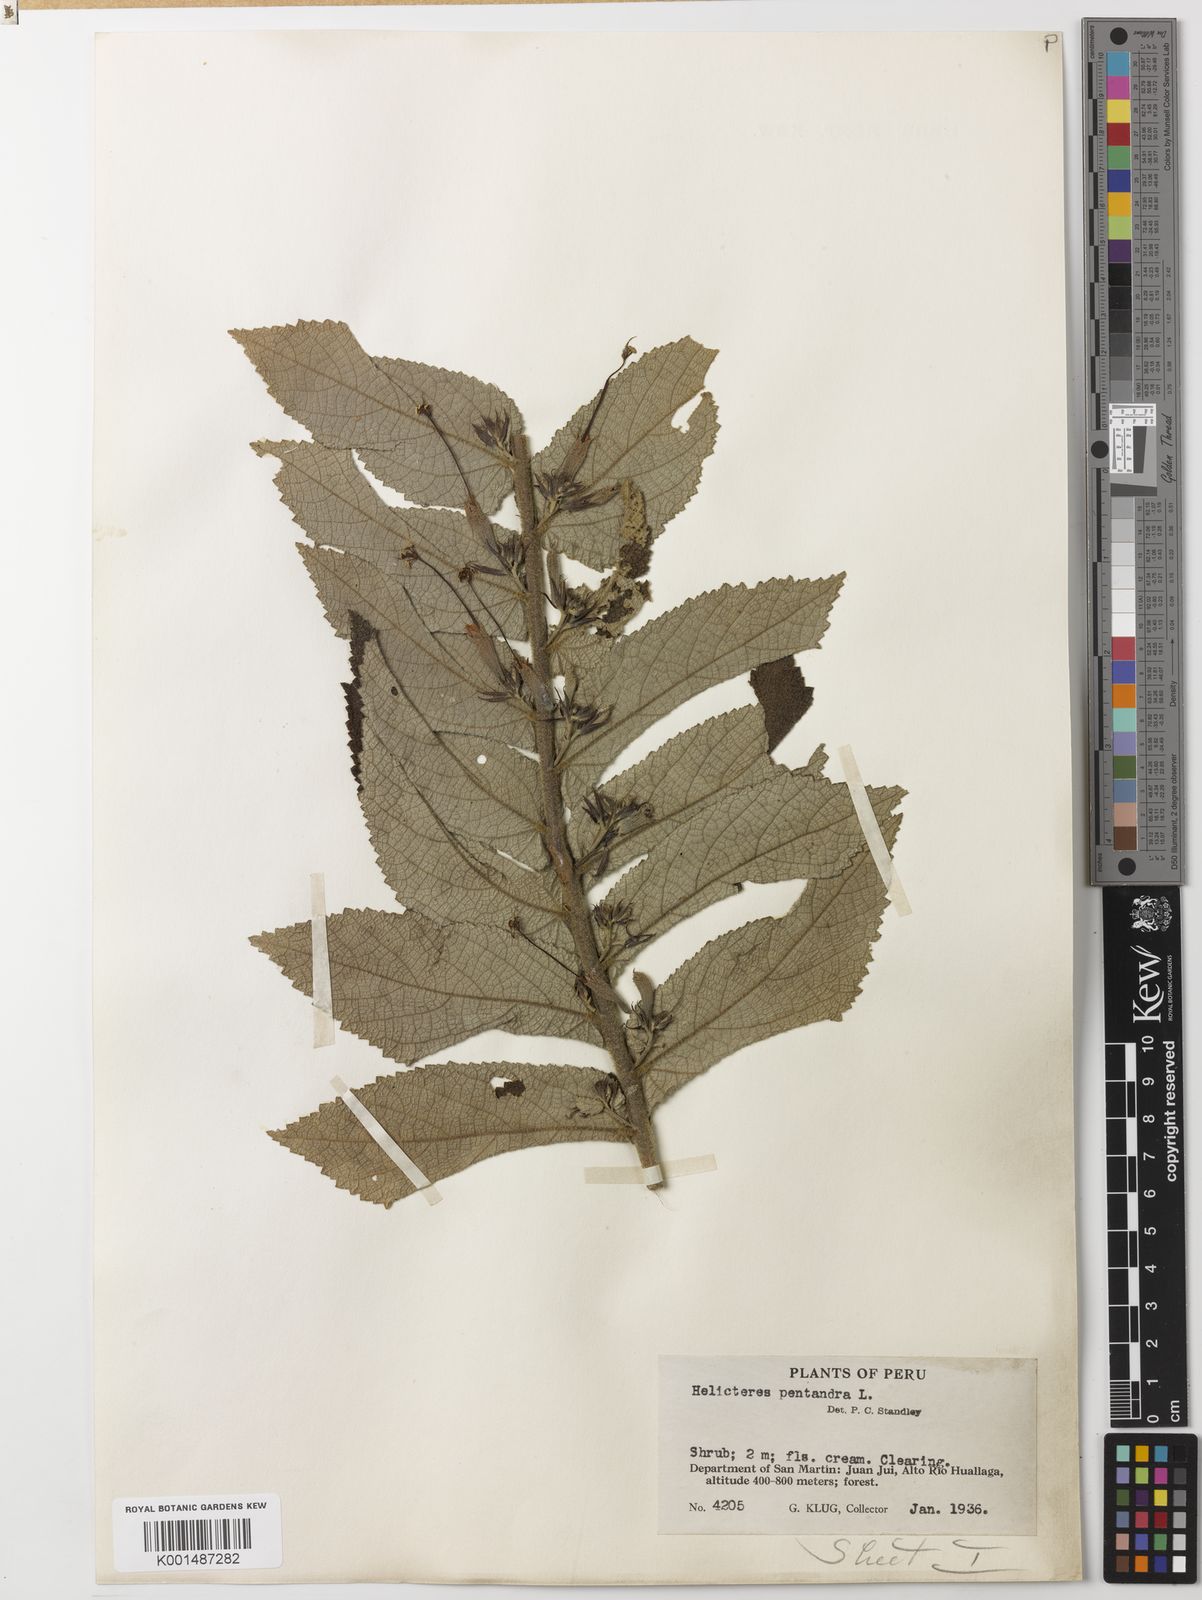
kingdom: Plantae
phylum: Tracheophyta
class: Magnoliopsida
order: Malvales
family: Malvaceae
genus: Helicteres
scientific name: Helicteres pentandra
